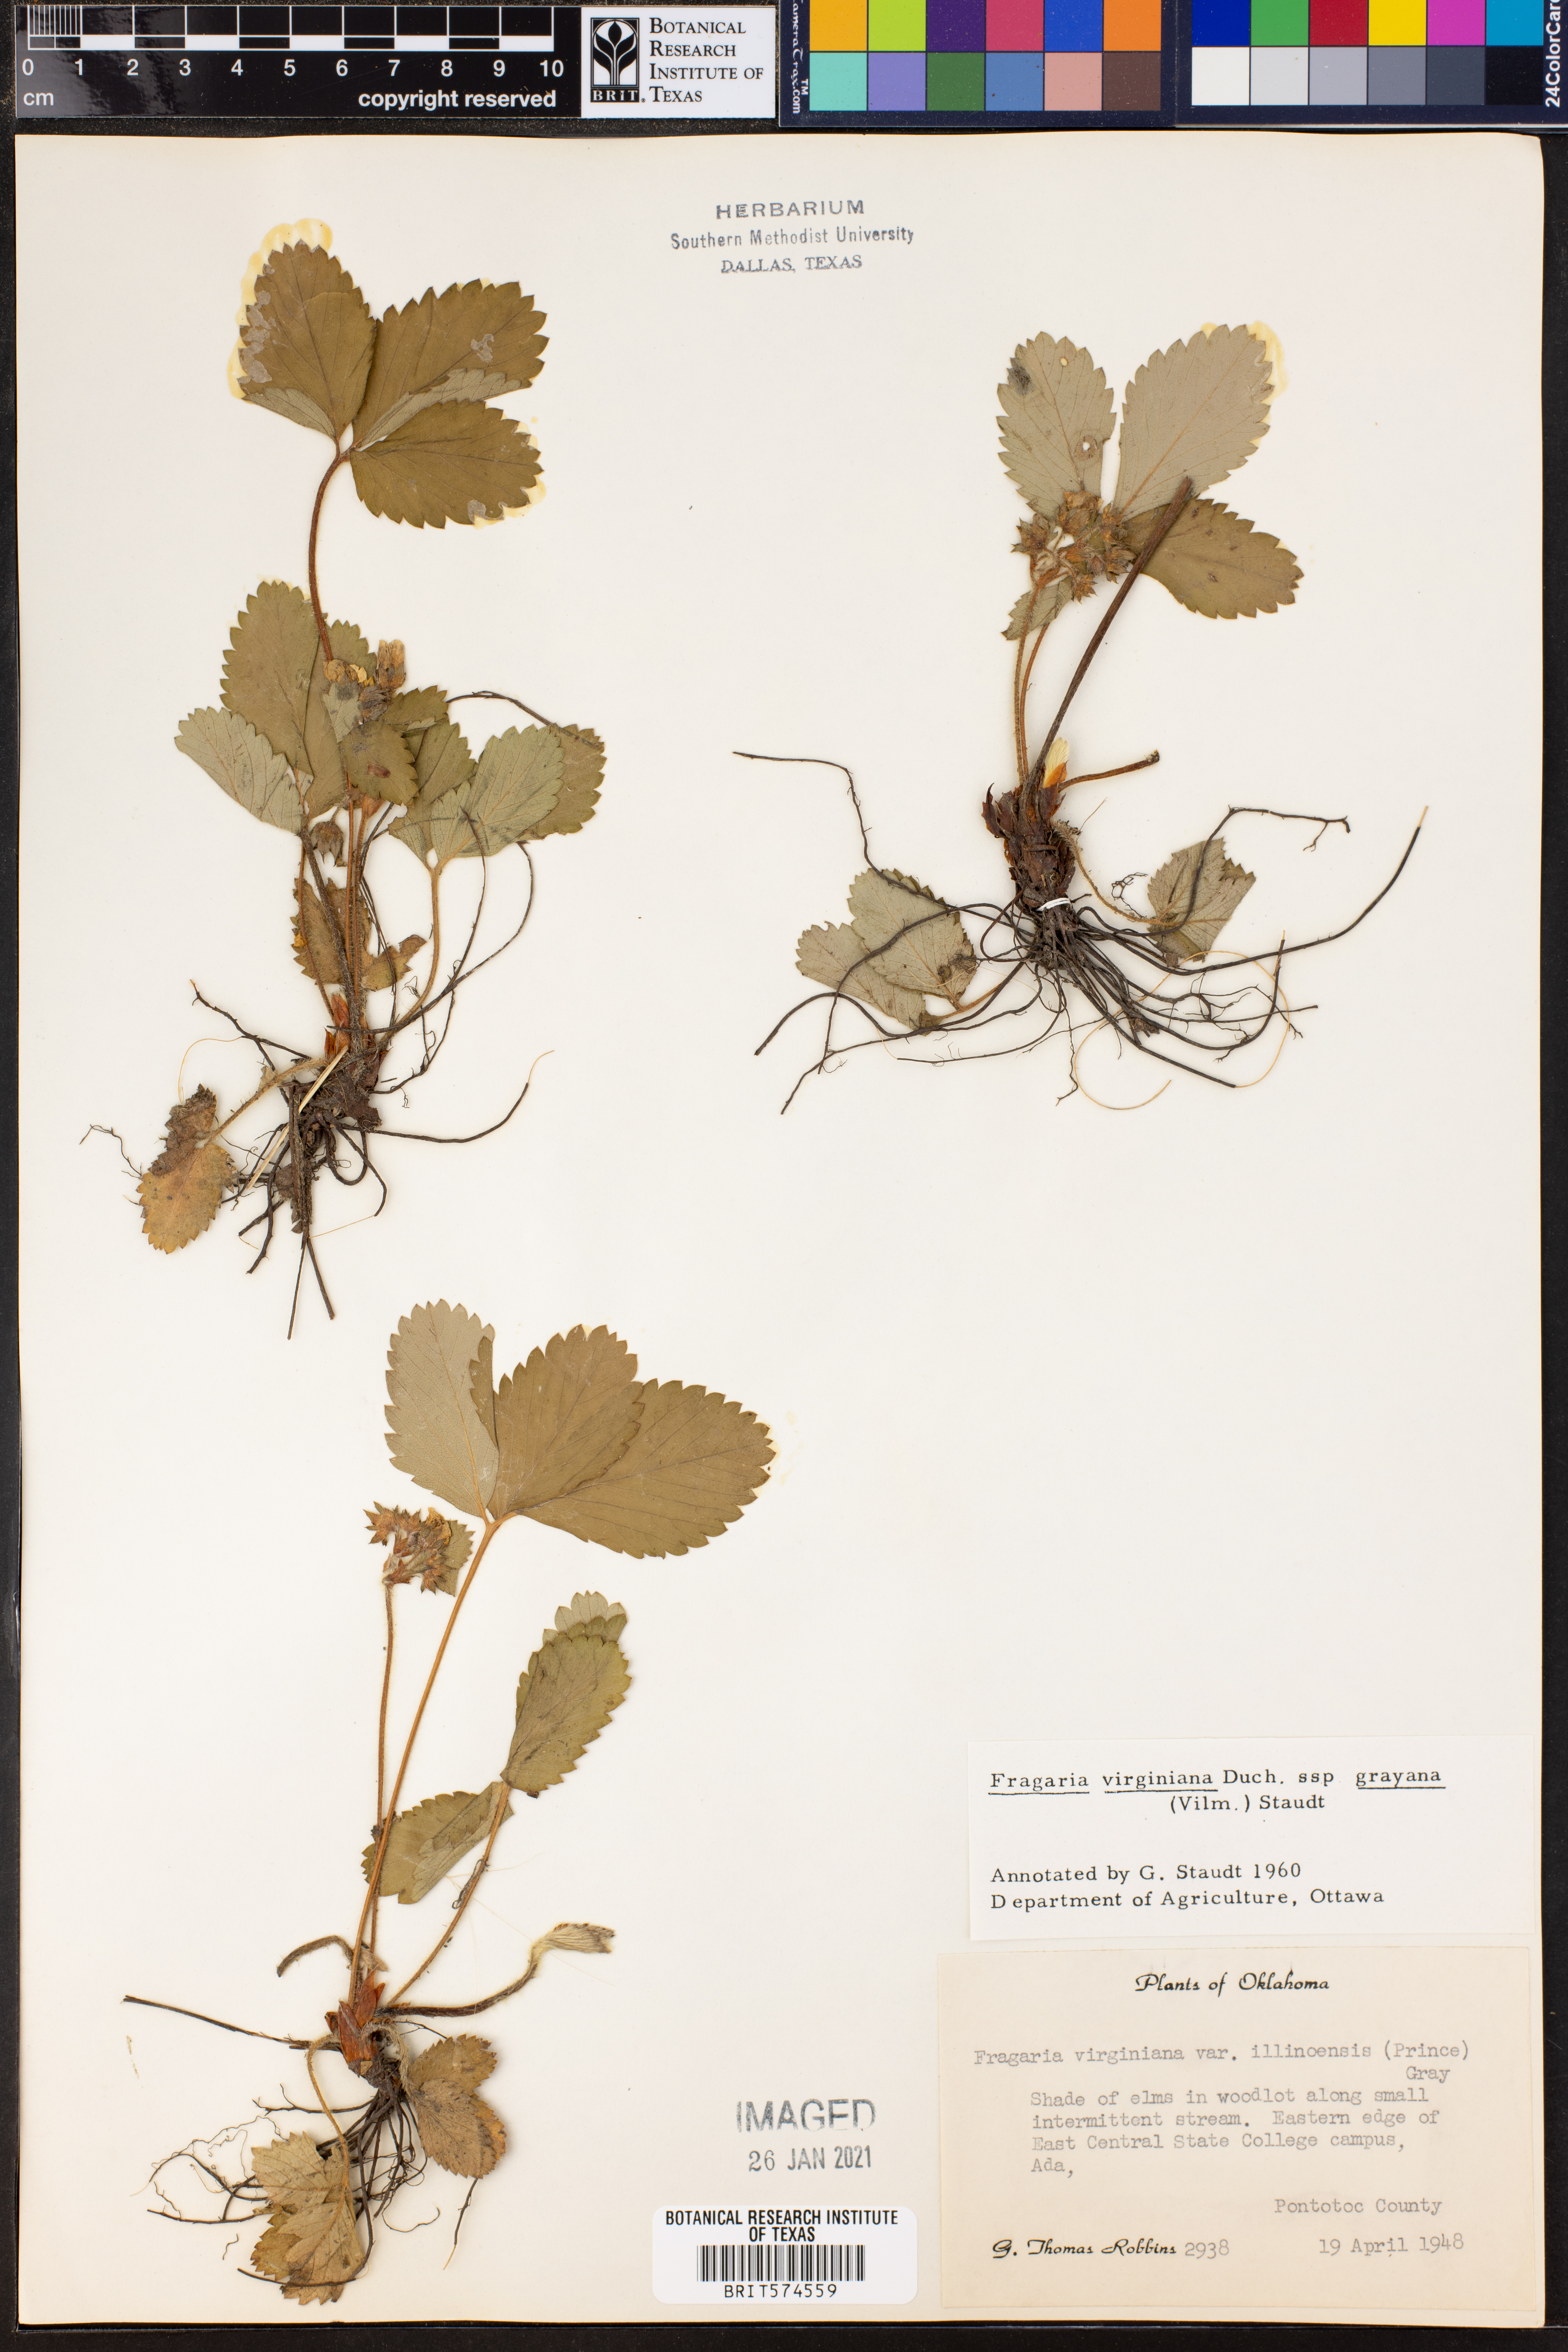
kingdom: Plantae
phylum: Tracheophyta
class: Magnoliopsida
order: Rosales
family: Rosaceae
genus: Fragaria
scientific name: Fragaria virginiana
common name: Thickleaved wild strawberry
